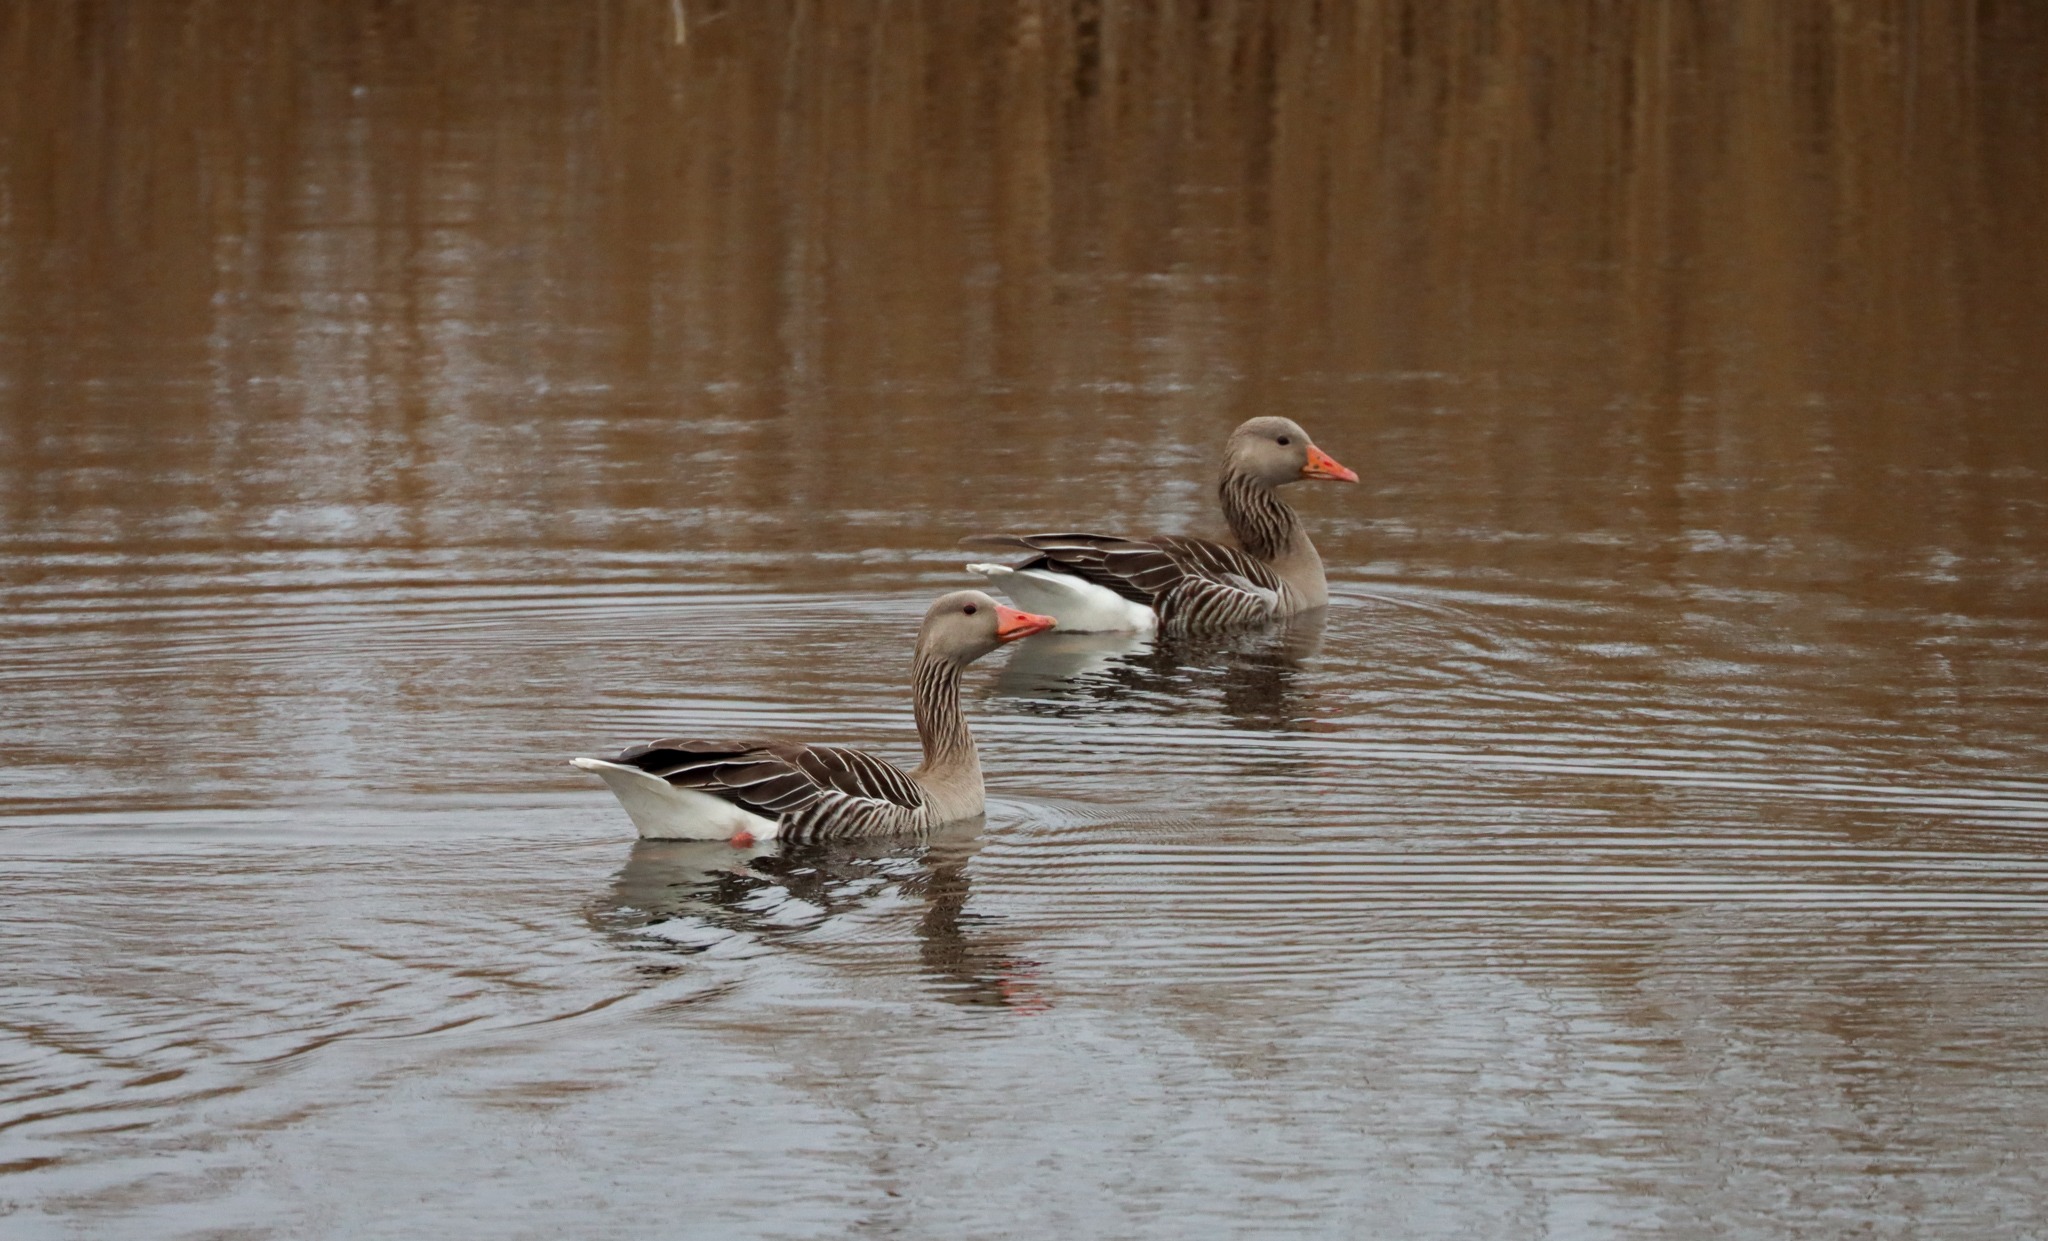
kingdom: Animalia
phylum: Chordata
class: Aves
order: Anseriformes
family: Anatidae
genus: Anser
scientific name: Anser anser
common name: Grågås
